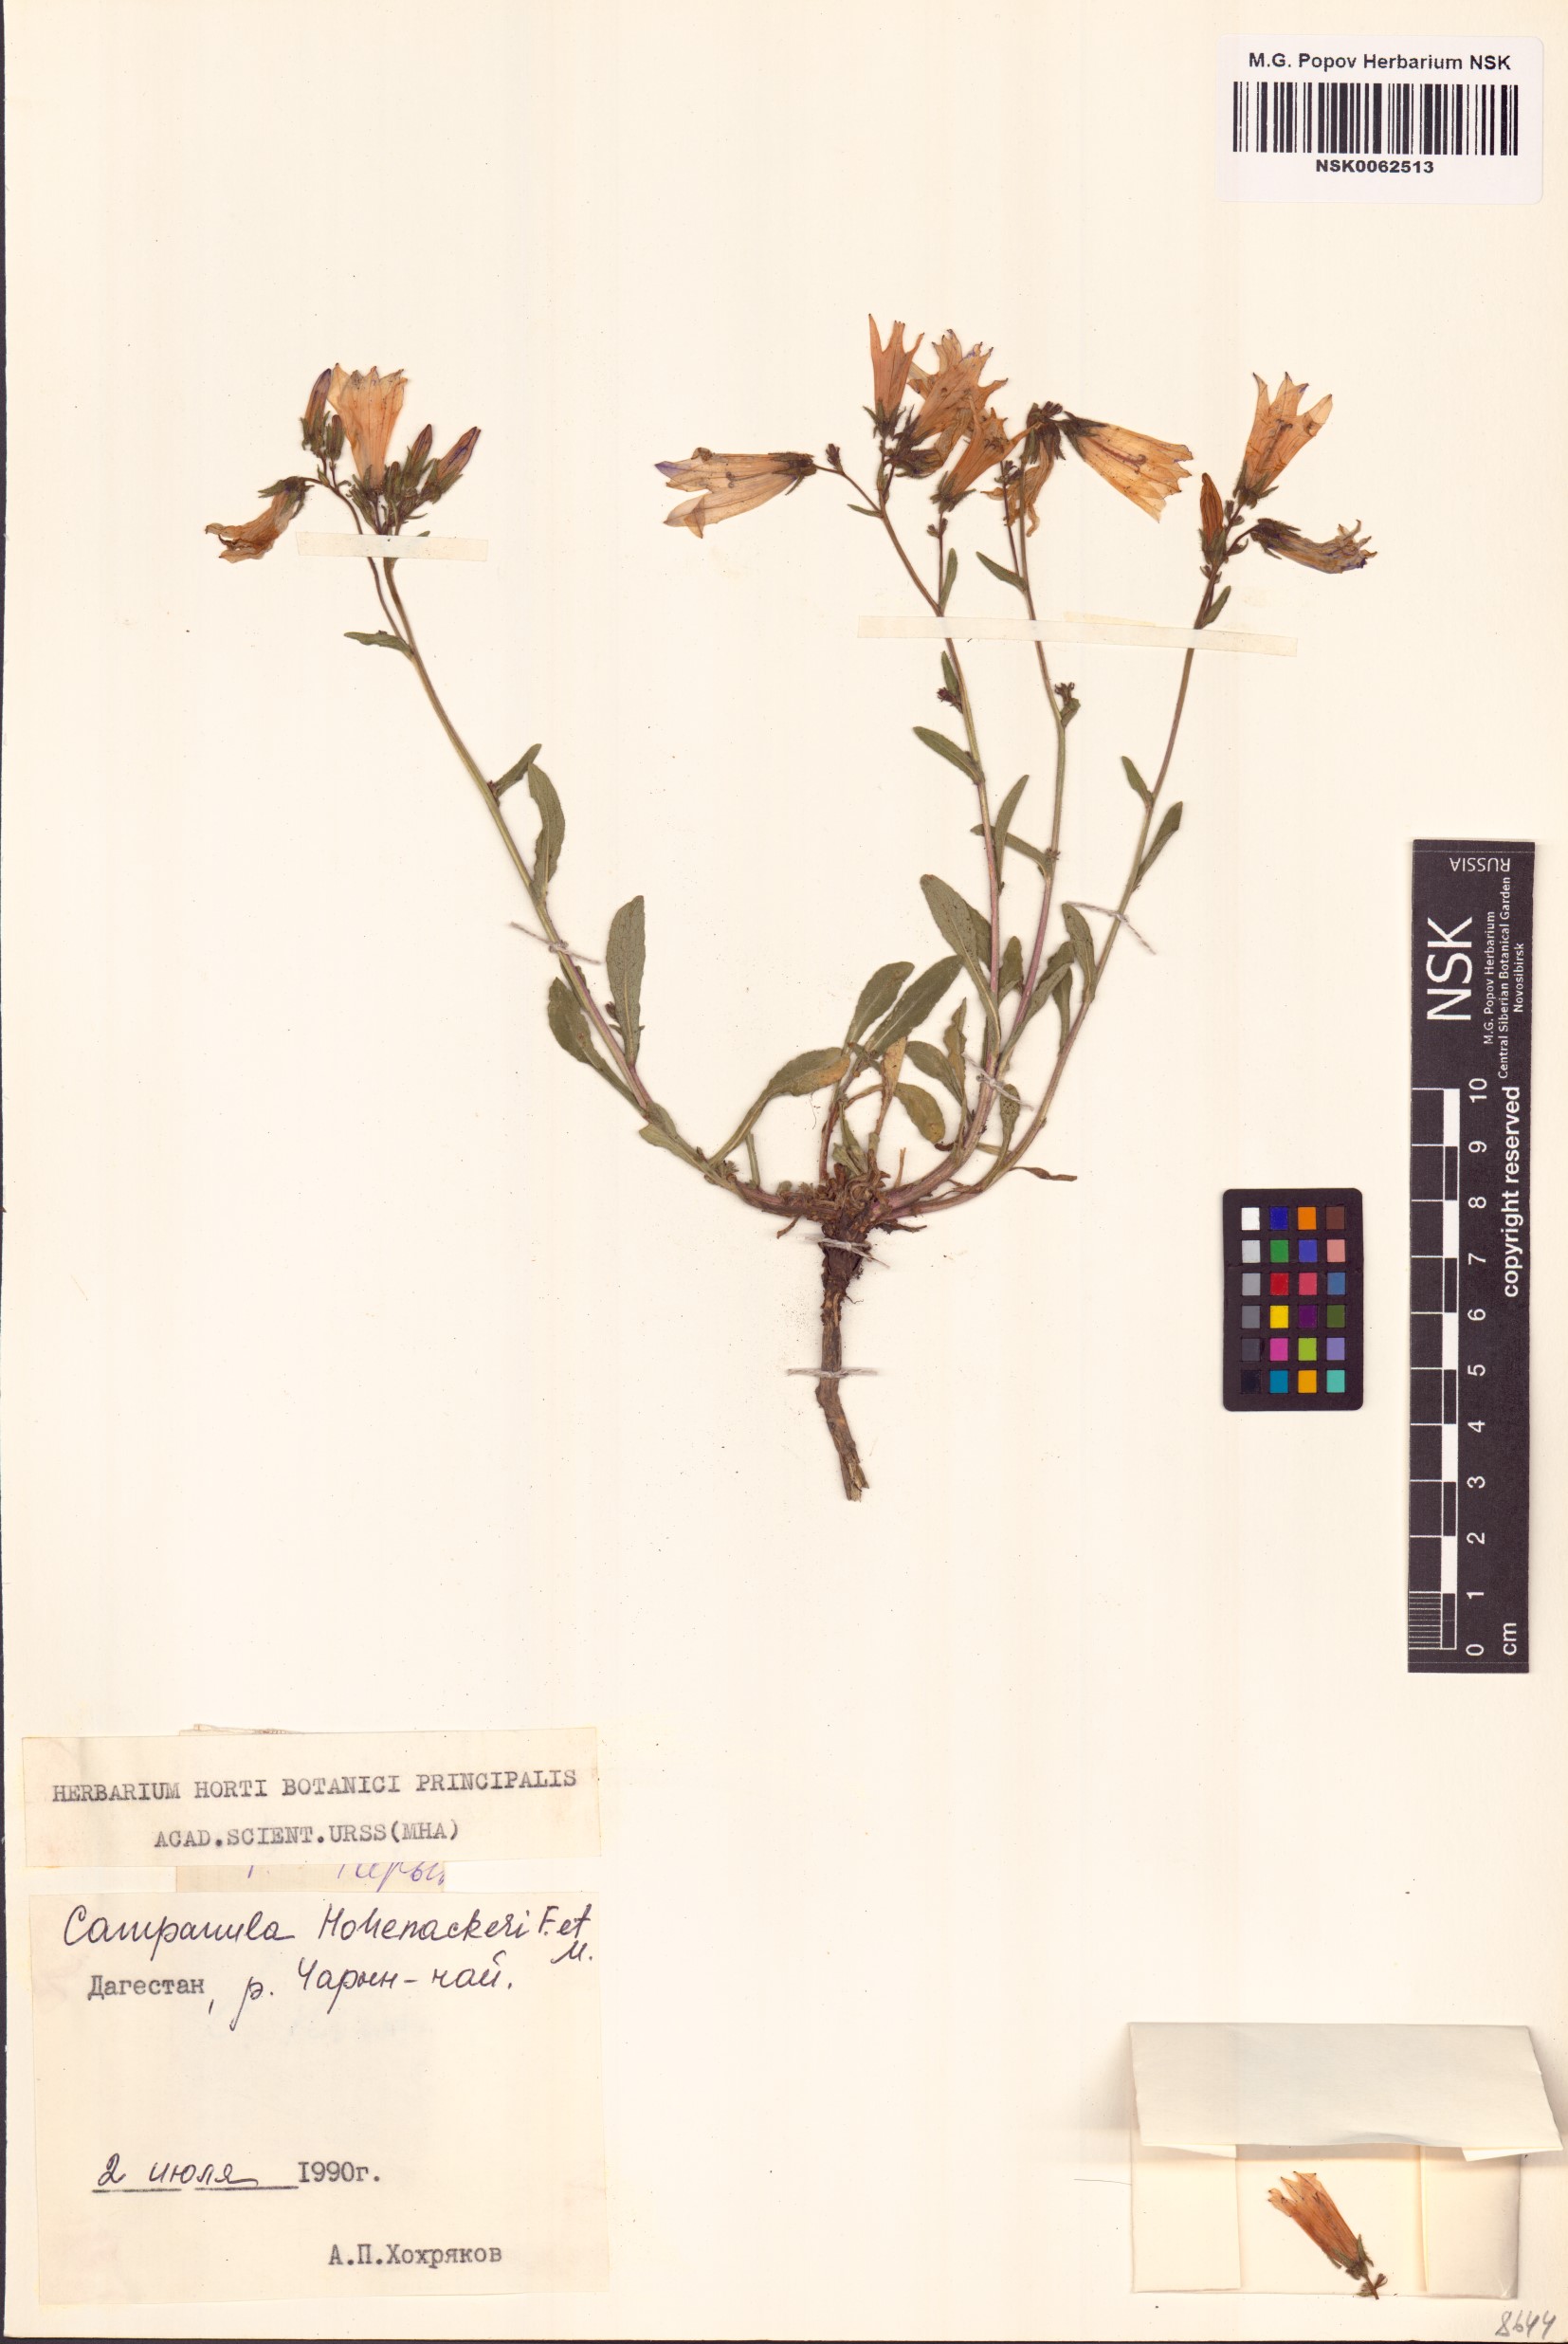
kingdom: Plantae
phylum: Tracheophyta
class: Magnoliopsida
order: Asterales
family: Campanulaceae
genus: Campanula
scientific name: Campanula sibirica
